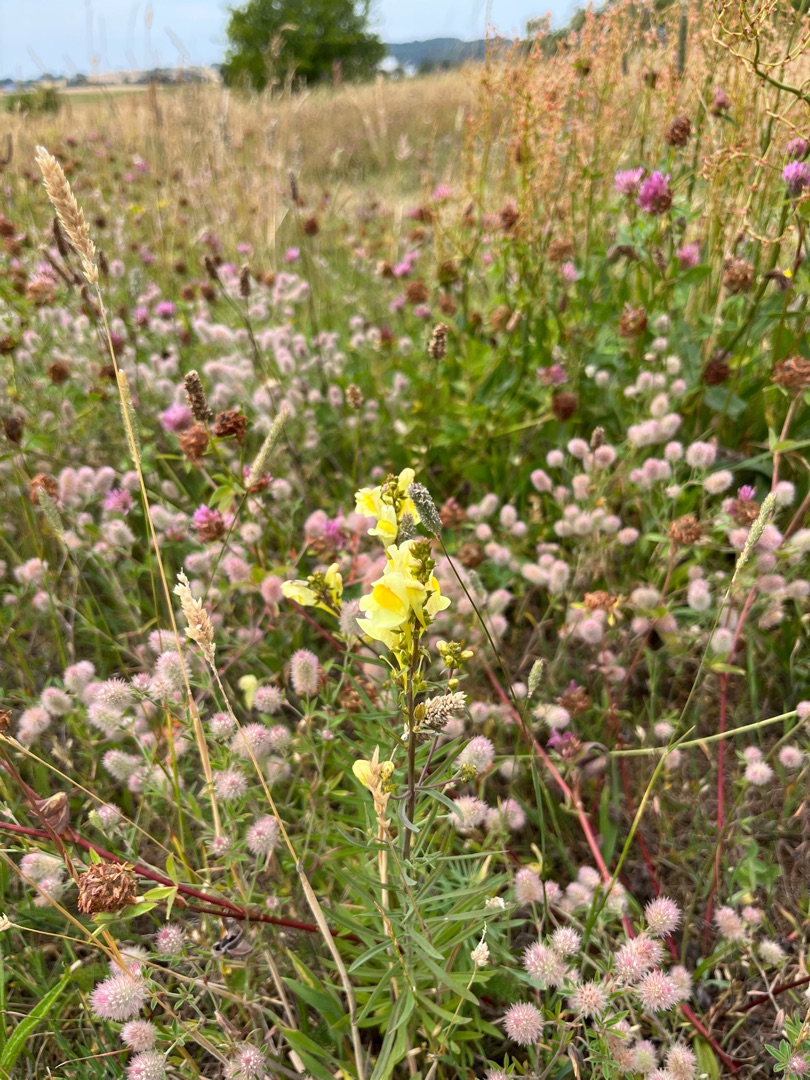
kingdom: Plantae
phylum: Tracheophyta
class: Magnoliopsida
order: Lamiales
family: Plantaginaceae
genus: Linaria
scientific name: Linaria vulgaris
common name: Almindelig torskemund
